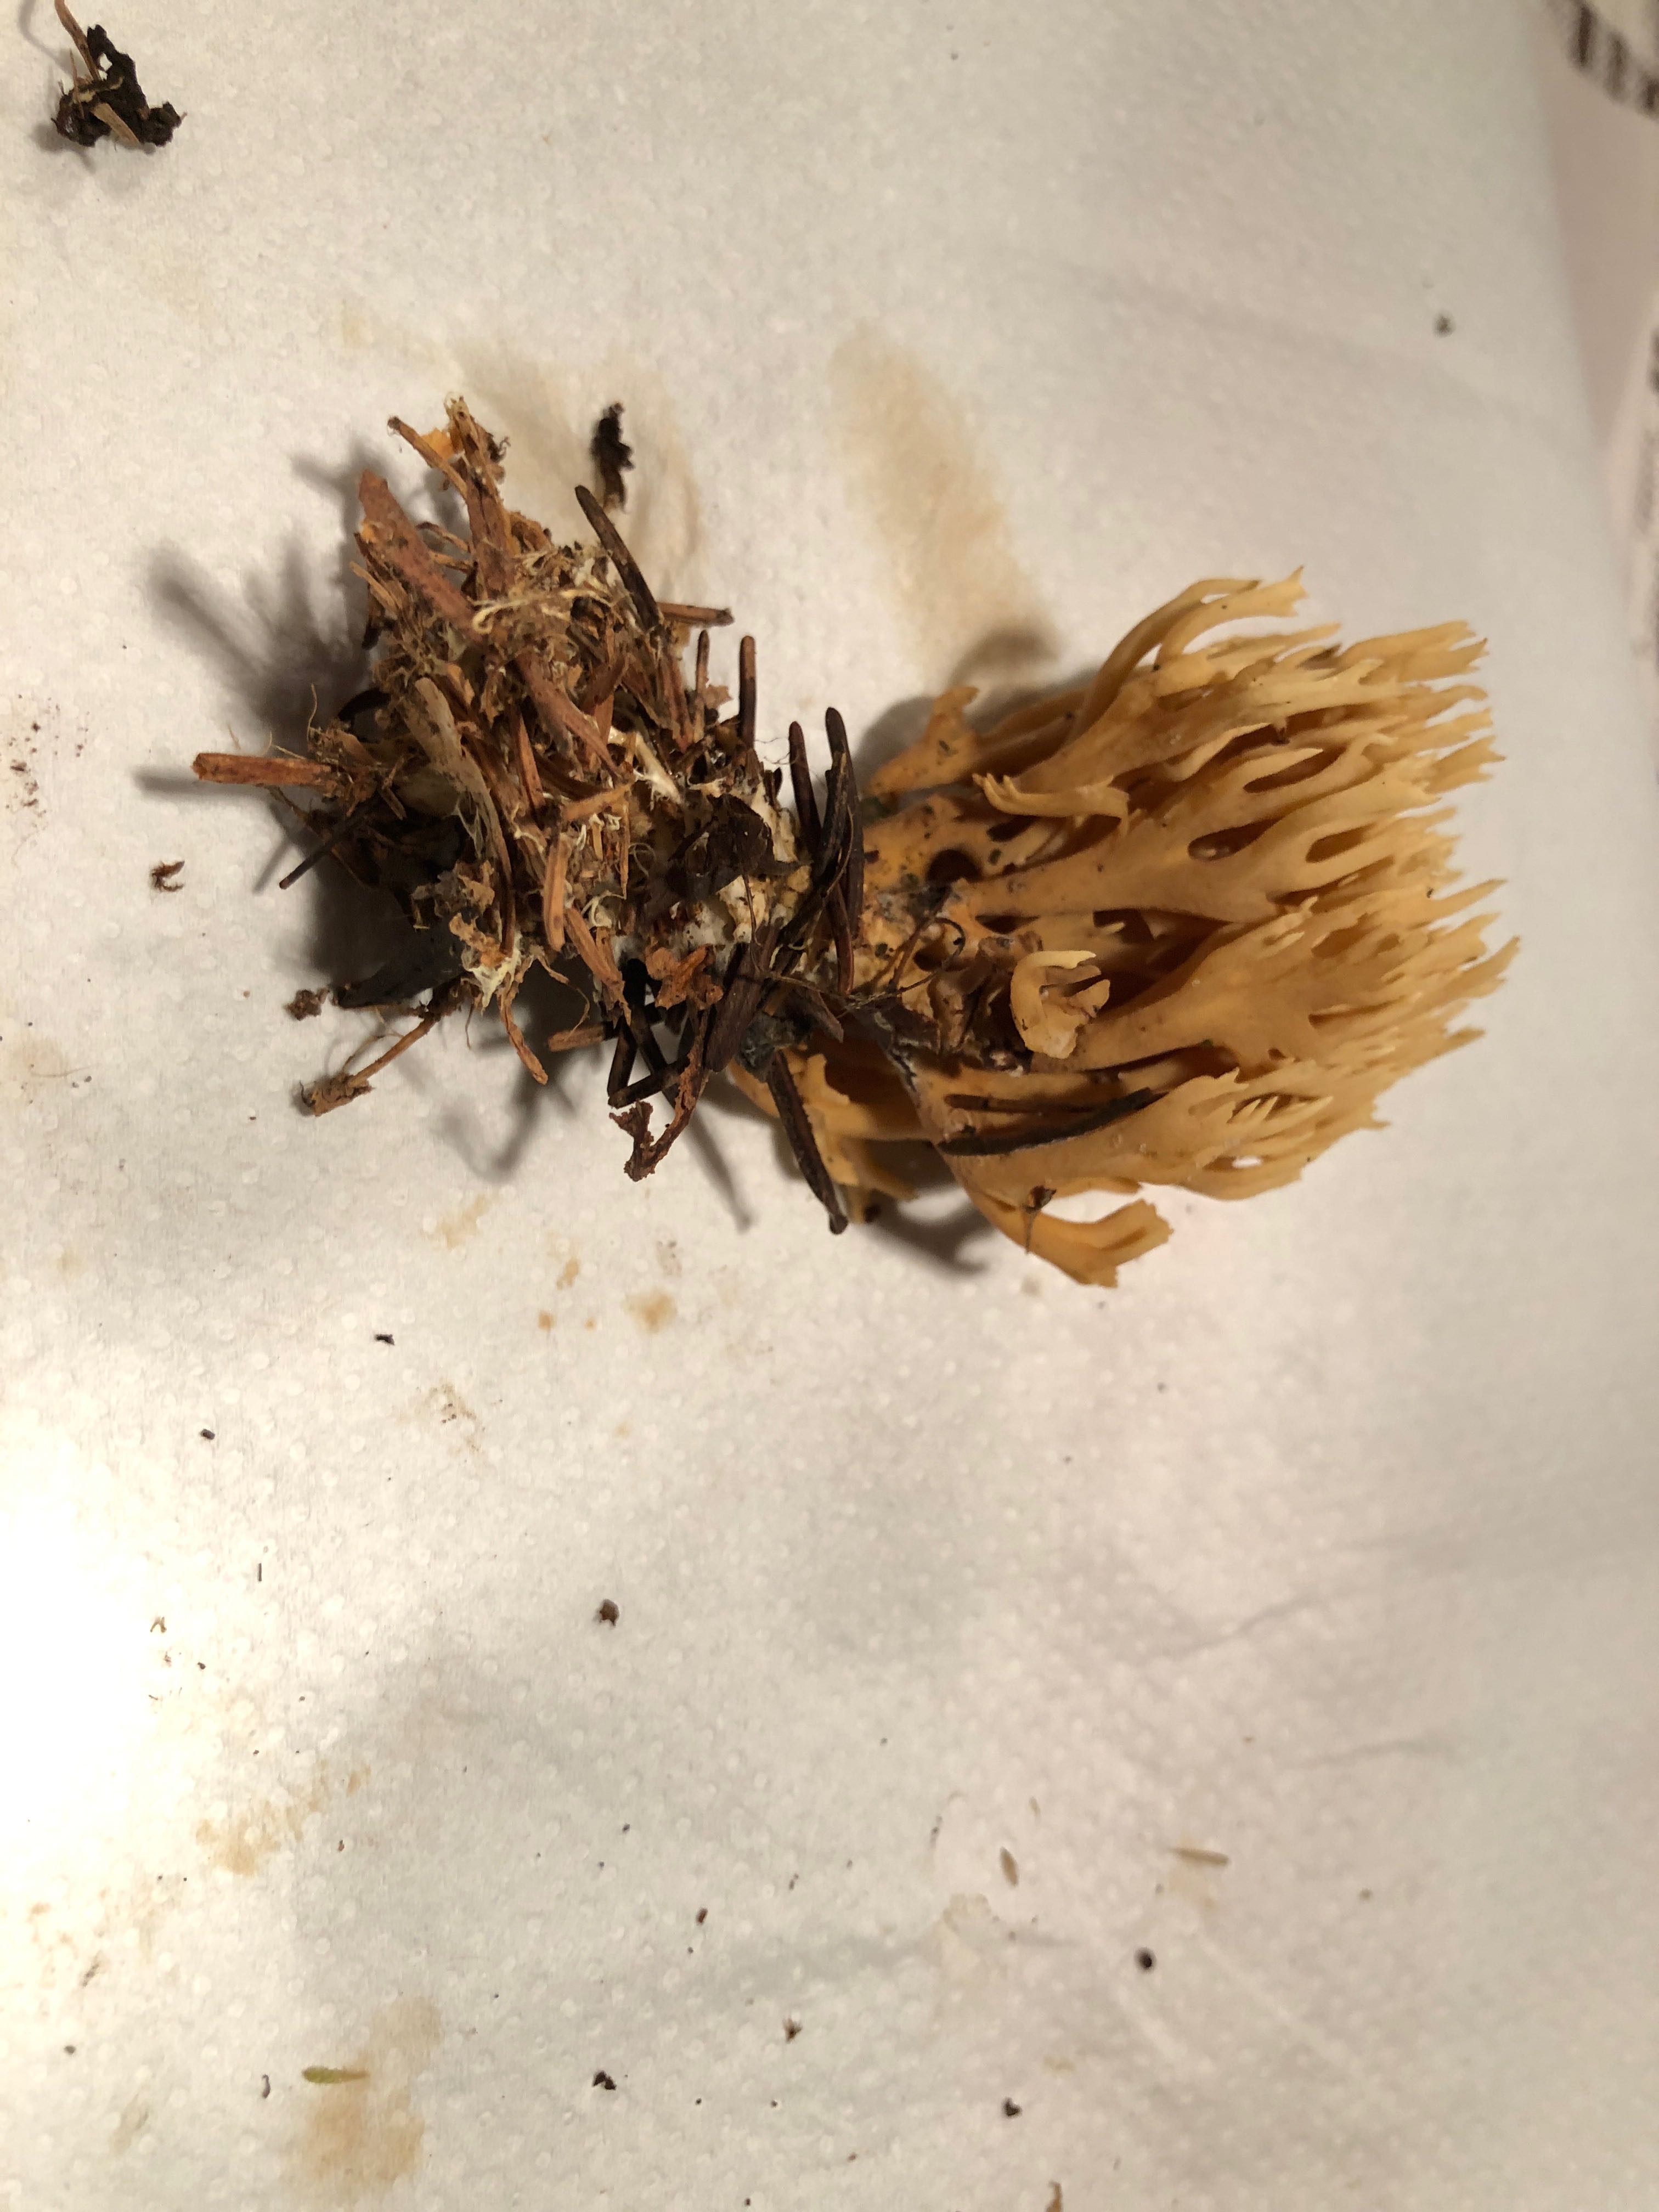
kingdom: Fungi
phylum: Basidiomycota
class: Agaricomycetes
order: Gomphales
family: Gomphaceae
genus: Phaeoclavulina
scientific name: Phaeoclavulina eumorpha
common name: gran-koralsvamp
